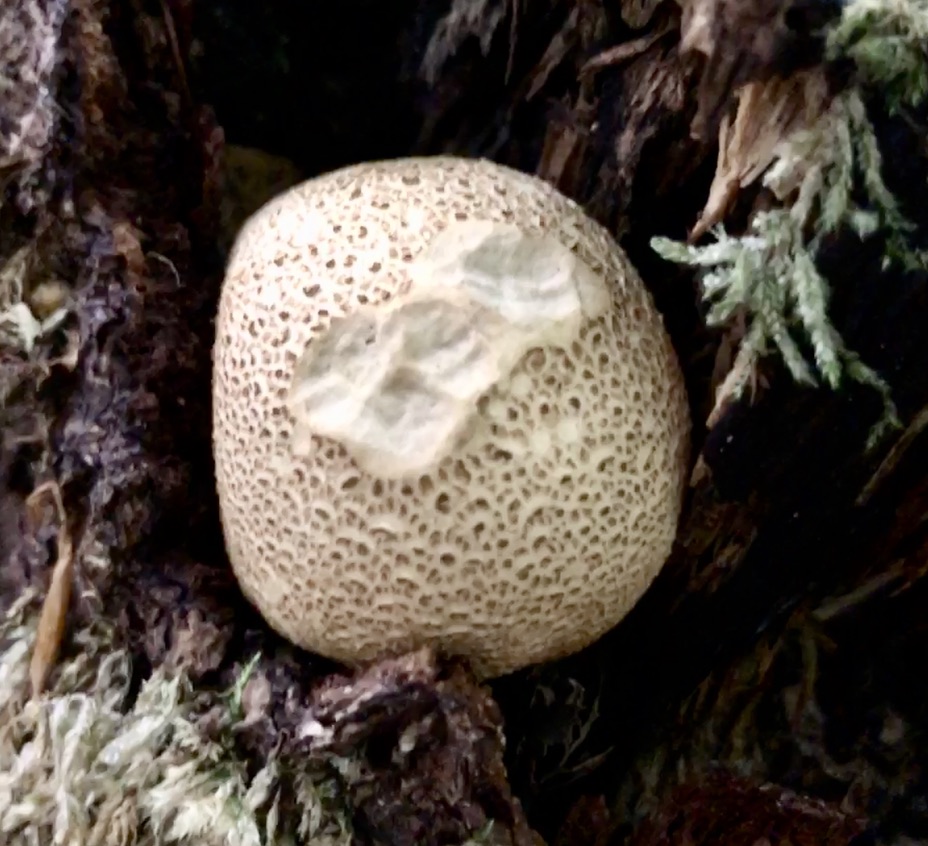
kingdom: Fungi
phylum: Basidiomycota
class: Agaricomycetes
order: Boletales
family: Sclerodermataceae
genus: Scleroderma
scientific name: Scleroderma citrinum
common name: almindelig bruskbold
